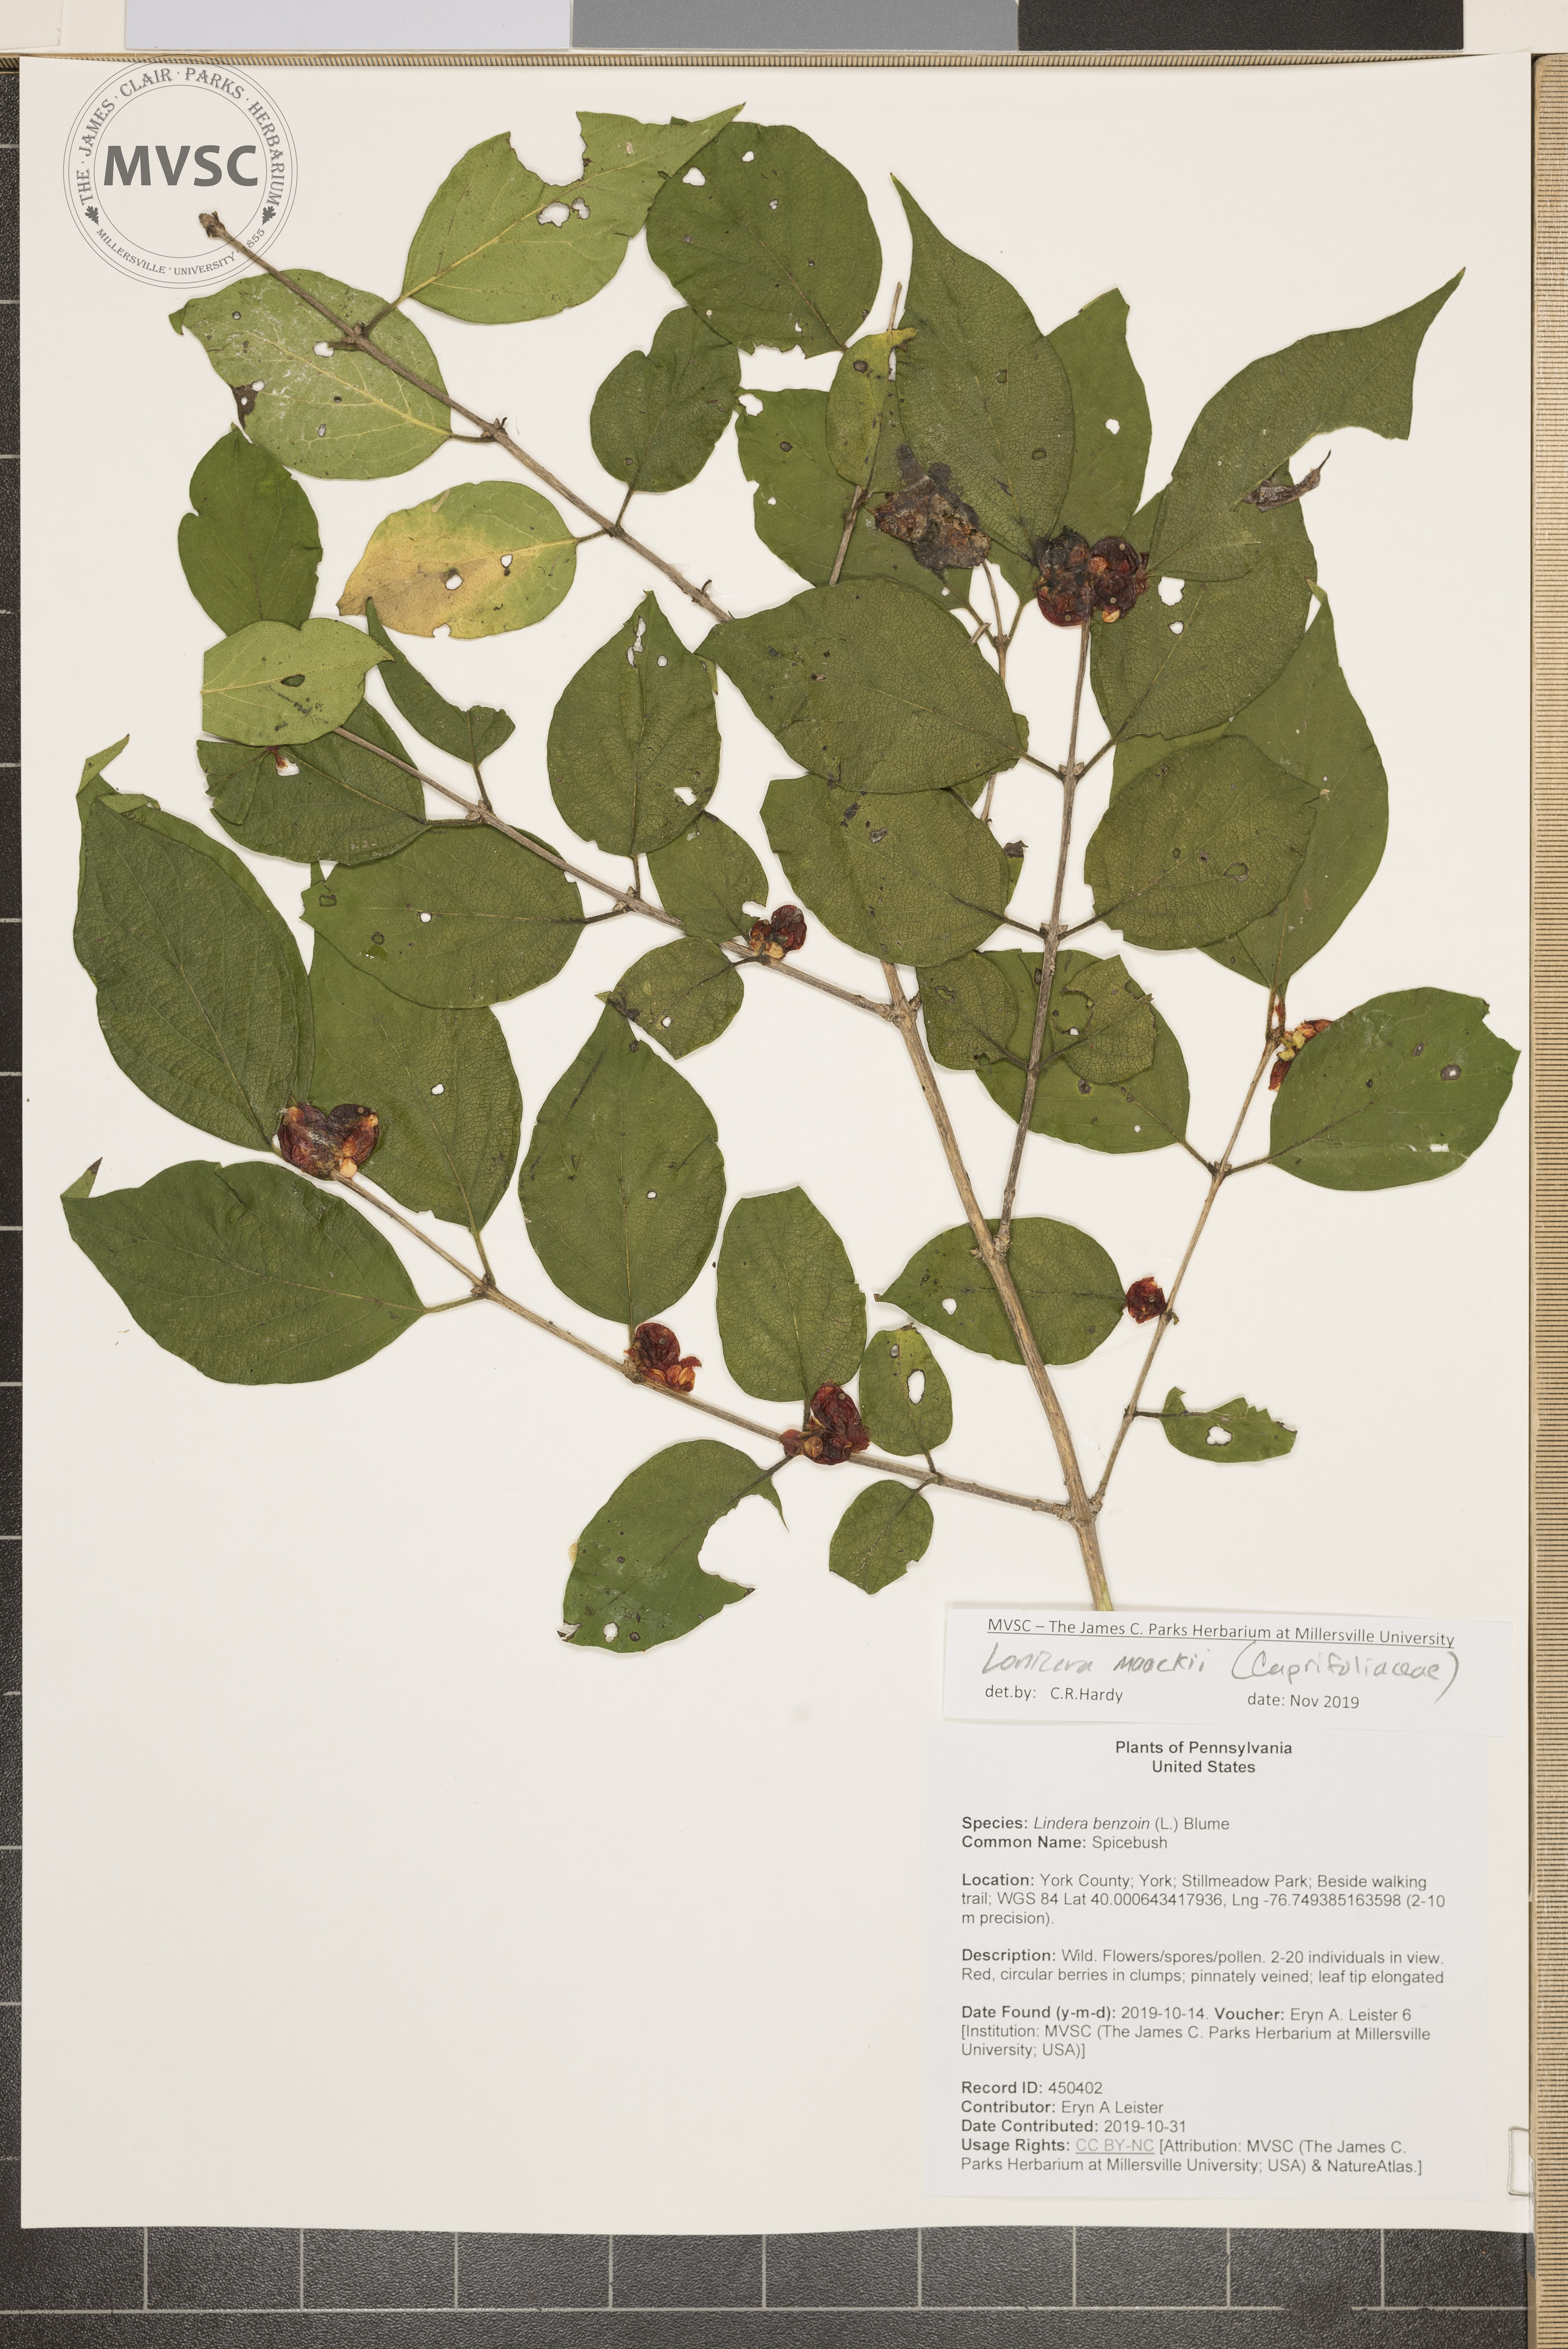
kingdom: Plantae
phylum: Tracheophyta
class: Magnoliopsida
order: Dipsacales
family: Caprifoliaceae
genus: Lonicera
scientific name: Lonicera maackii
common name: Honeysuckle
